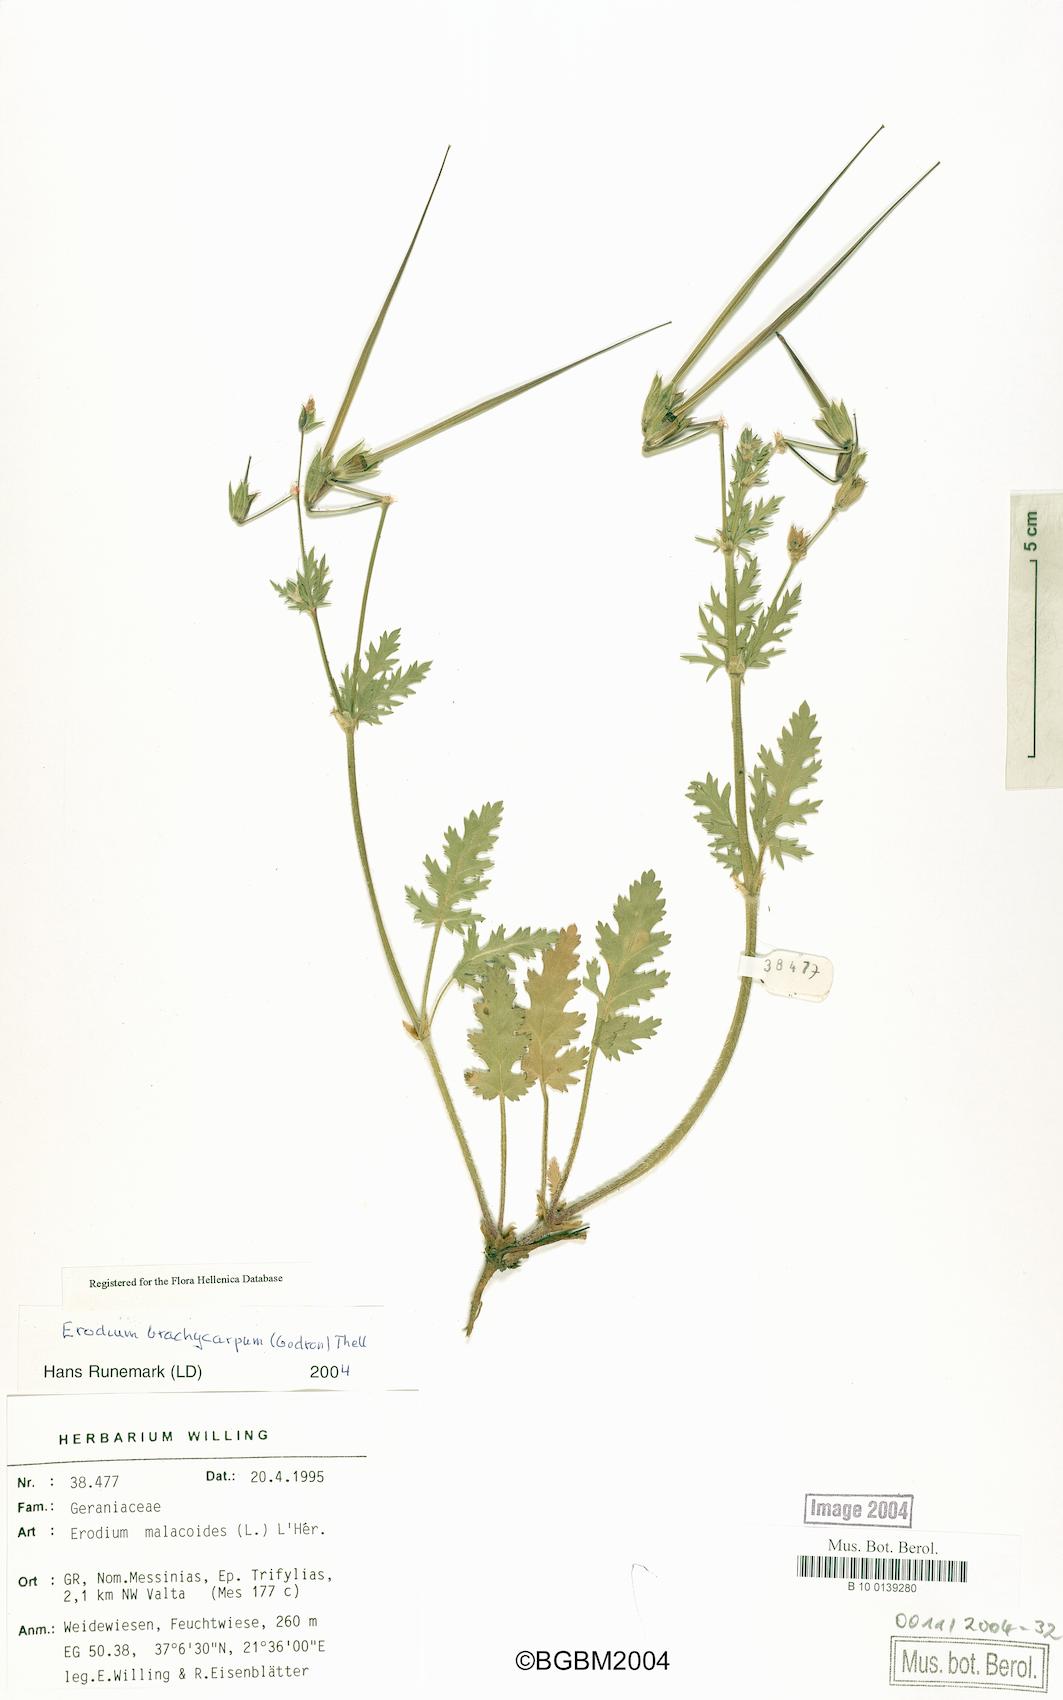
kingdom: Plantae
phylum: Tracheophyta
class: Magnoliopsida
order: Geraniales
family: Geraniaceae
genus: Erodium
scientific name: Erodium brachycarpum
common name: Hairy-pitted stork's-bill
